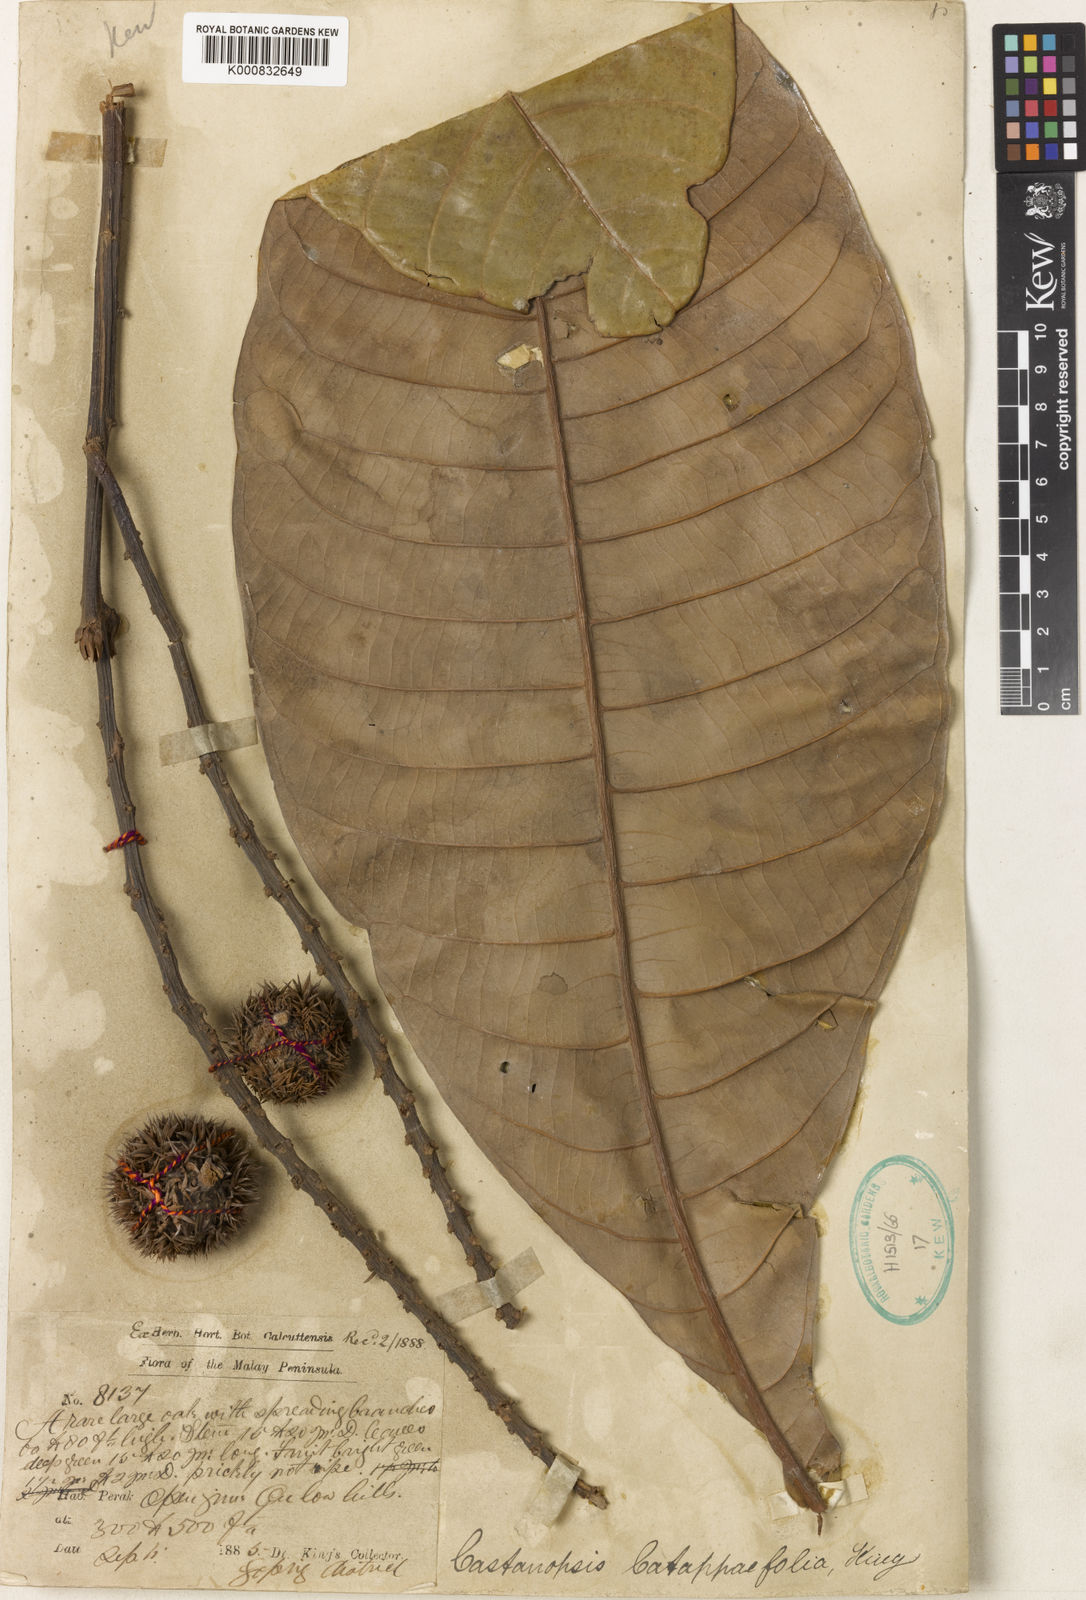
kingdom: Plantae
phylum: Tracheophyta
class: Magnoliopsida
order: Fagales
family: Fagaceae
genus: Castanopsis
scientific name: Castanopsis catappifolia
